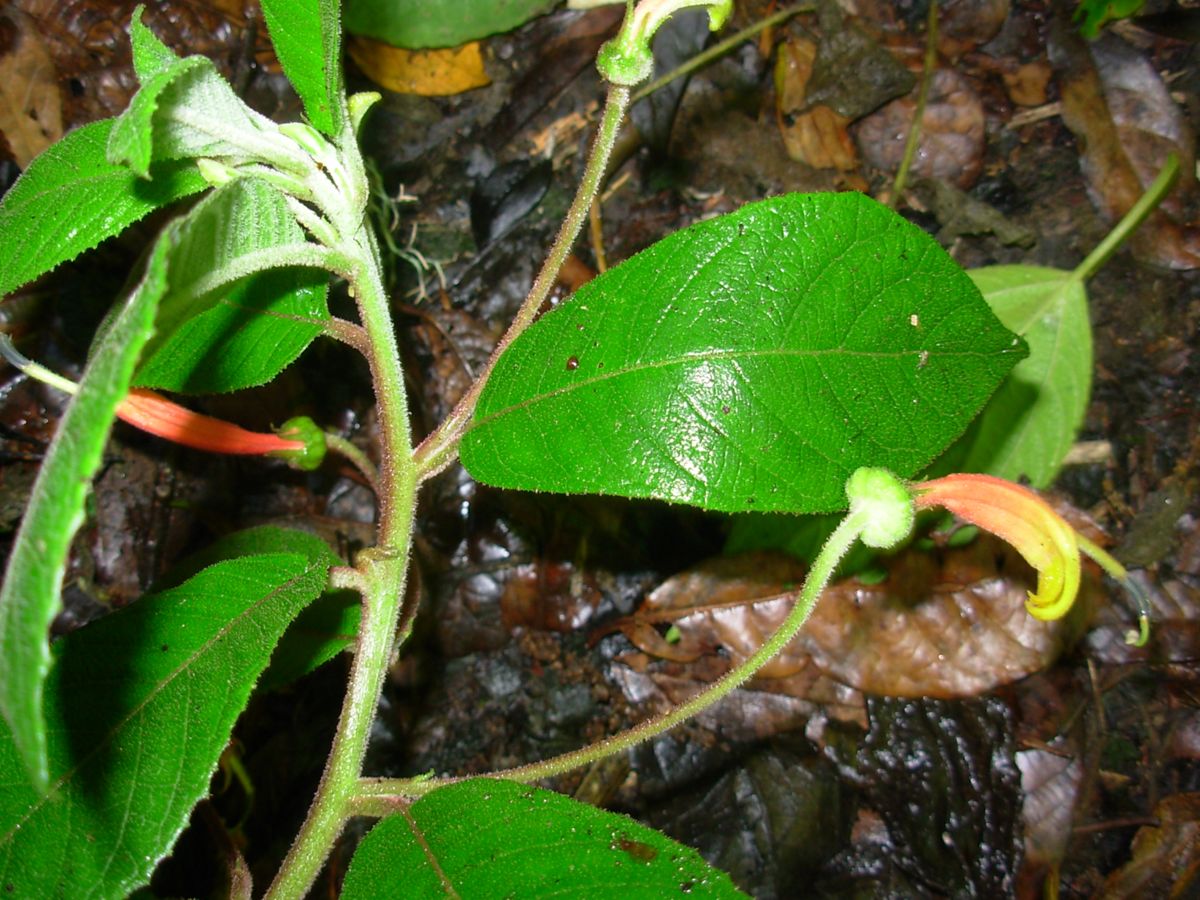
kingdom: Plantae
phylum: Tracheophyta
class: Magnoliopsida
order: Asterales
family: Campanulaceae
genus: Centropogon
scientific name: Centropogon ferrugineus
